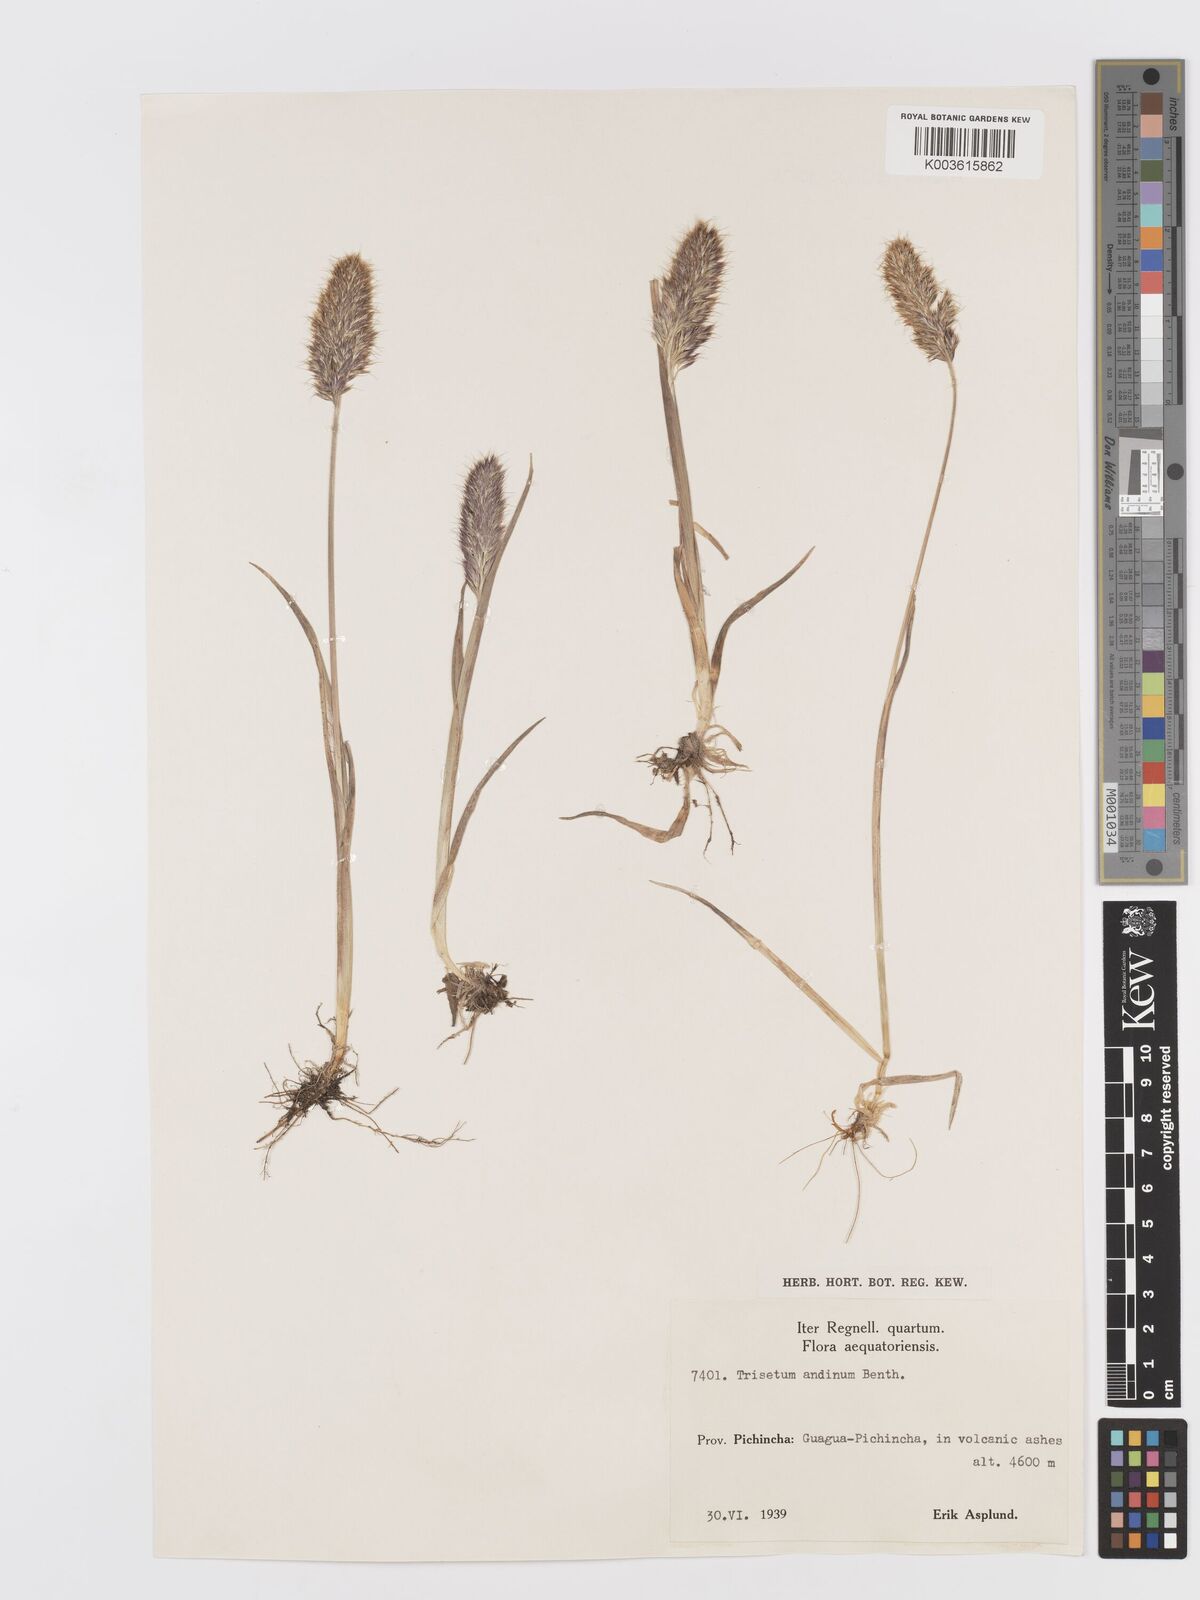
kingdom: Plantae
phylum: Tracheophyta
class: Liliopsida
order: Poales
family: Poaceae
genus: Koeleria
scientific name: Koeleria spicata
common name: Mountain trisetum
